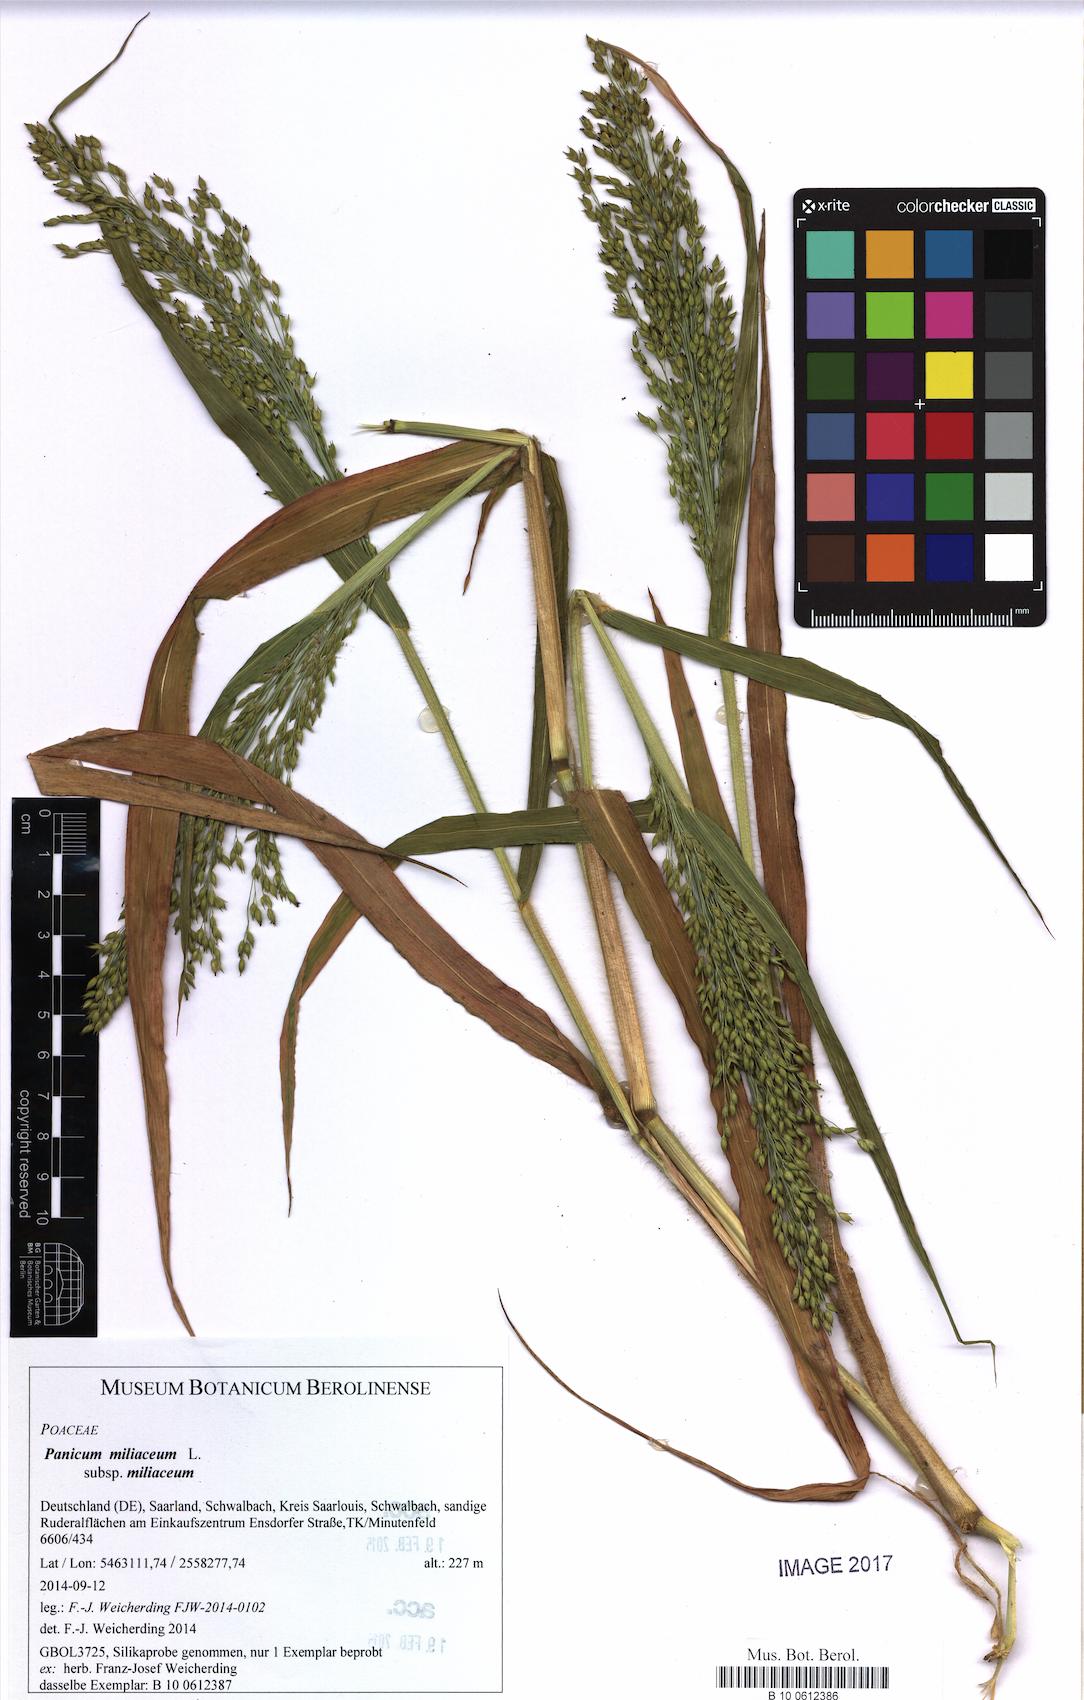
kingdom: Plantae
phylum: Tracheophyta
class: Liliopsida
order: Poales
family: Poaceae
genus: Panicum
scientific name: Panicum miliaceum
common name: Common millet
